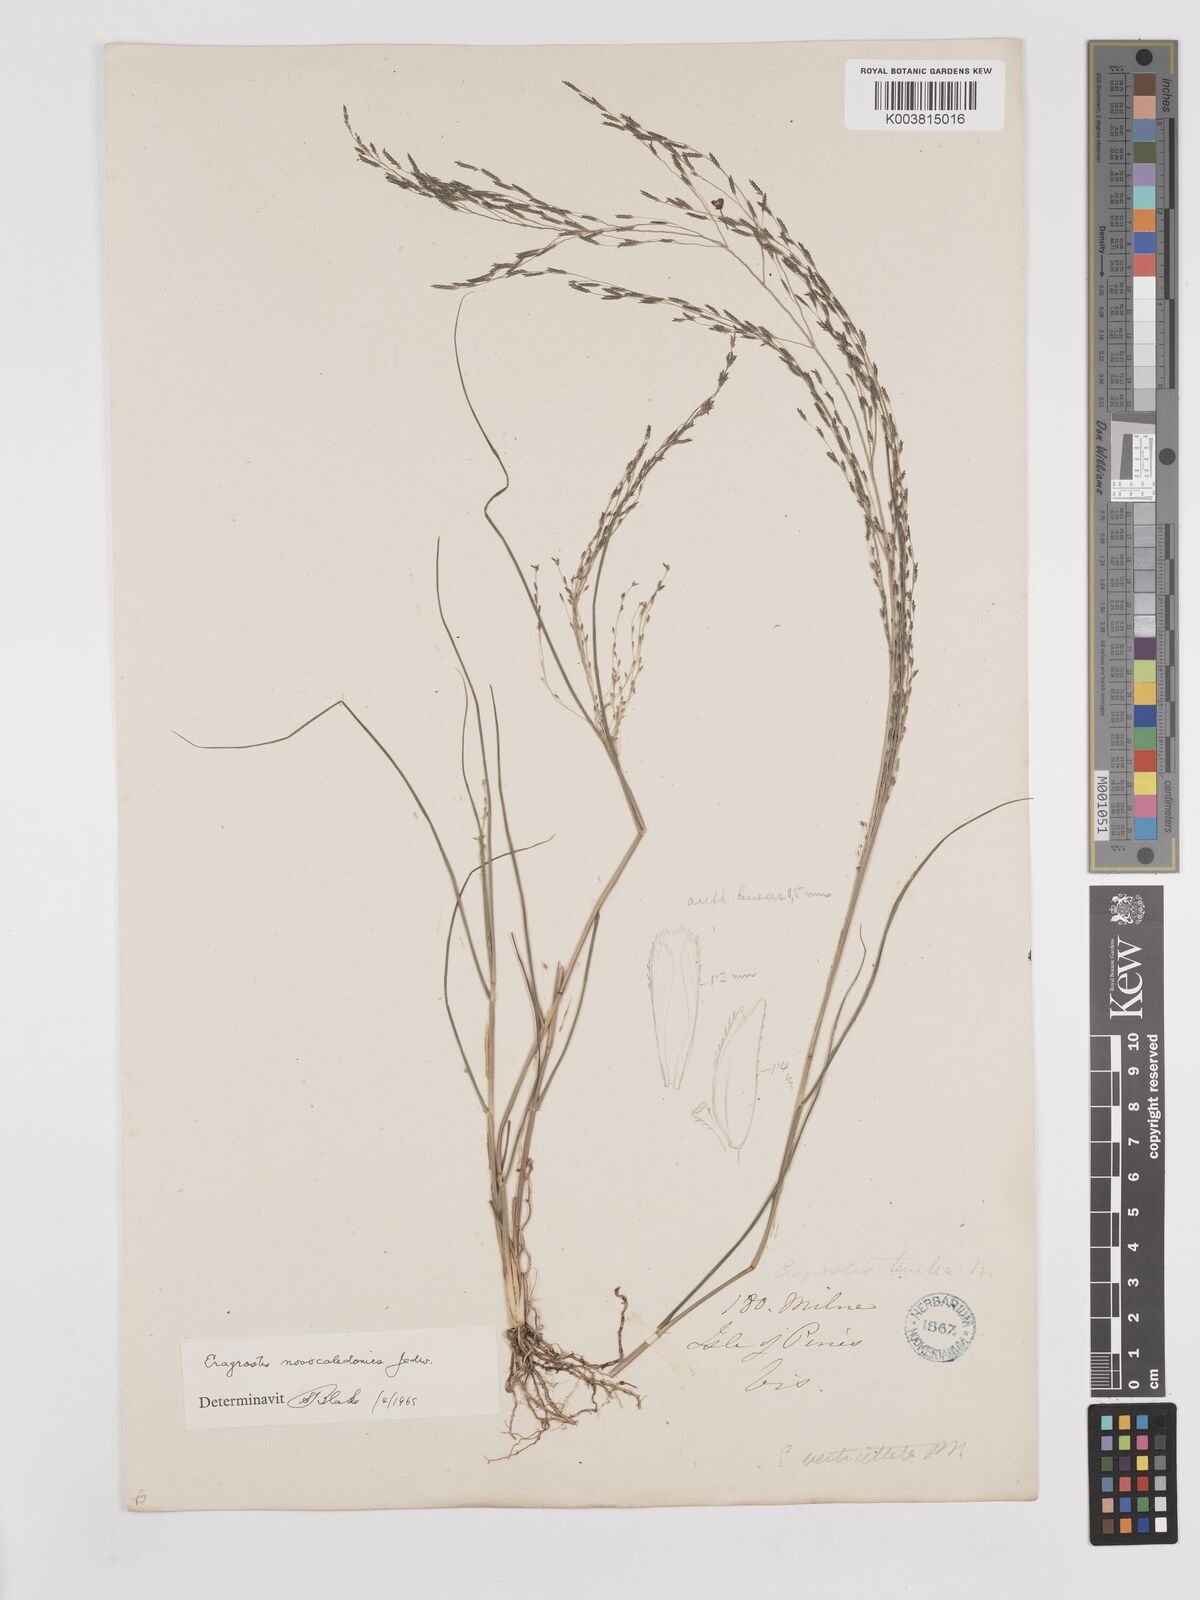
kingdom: Plantae
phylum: Tracheophyta
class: Liliopsida
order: Poales
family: Poaceae
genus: Eragrostis
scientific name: Eragrostis parviflora
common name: Weeping love-grass
